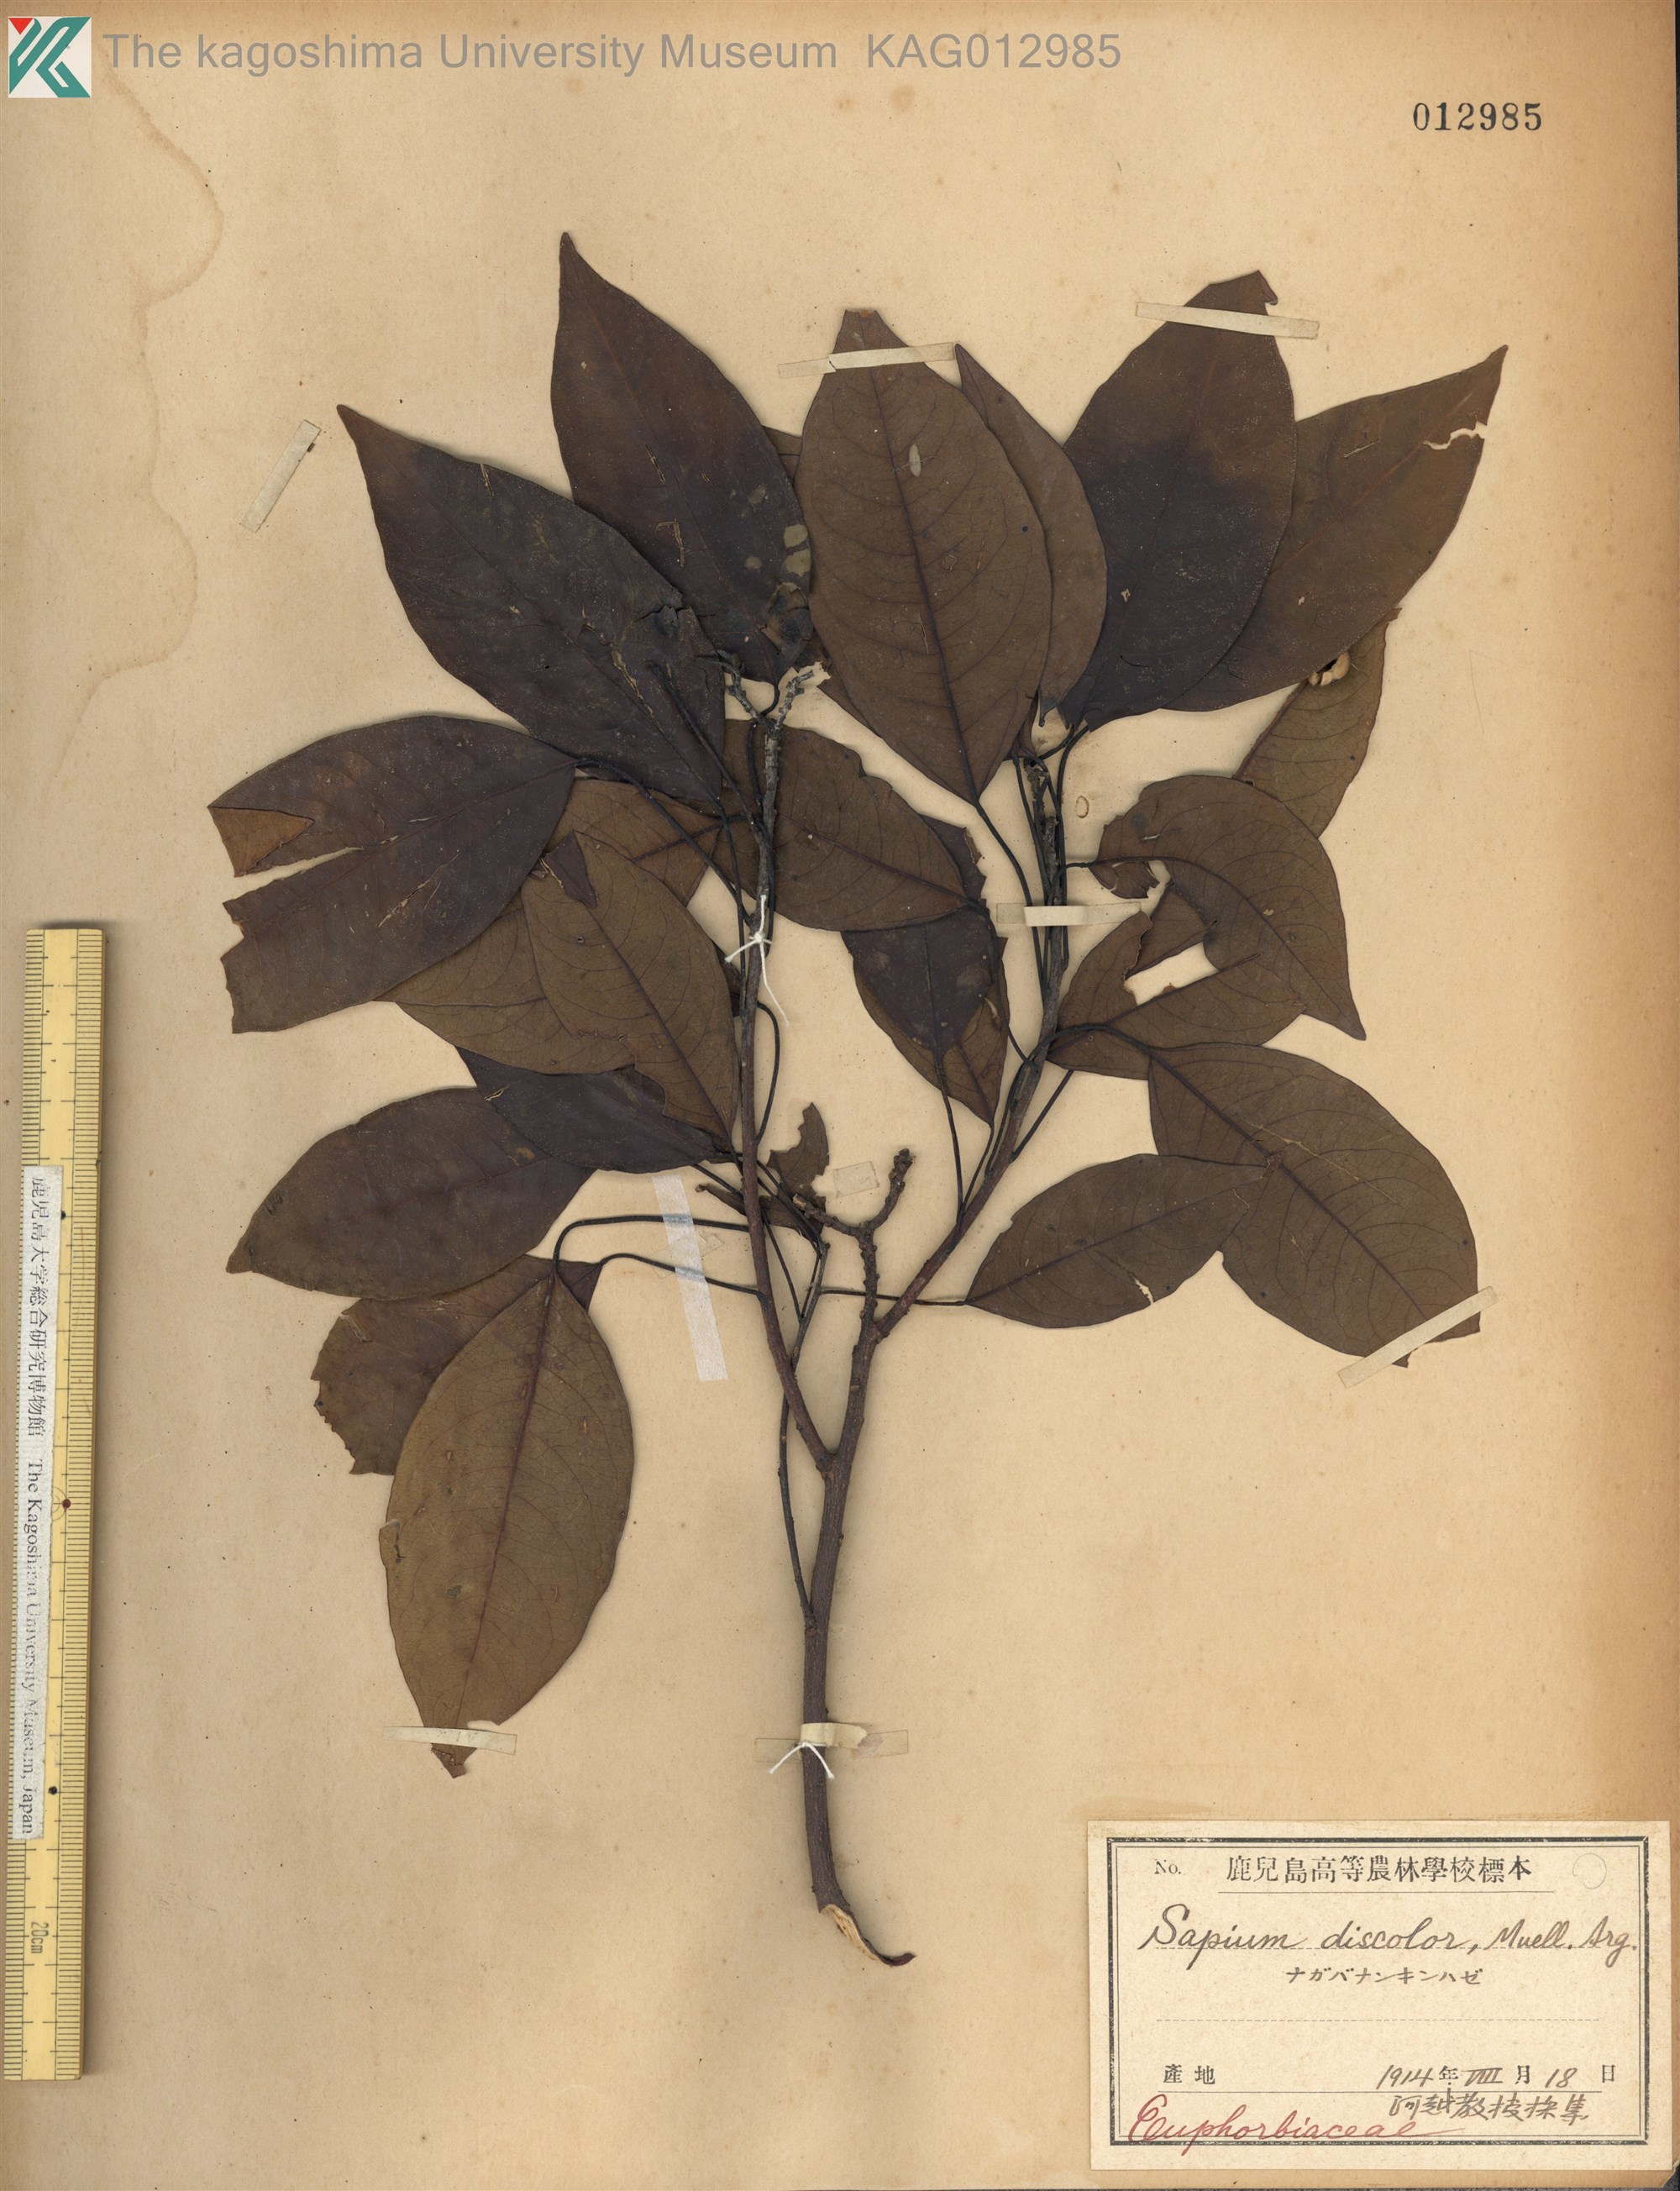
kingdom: Plantae
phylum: Tracheophyta
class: Magnoliopsida
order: Malpighiales
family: Euphorbiaceae
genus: Triadica
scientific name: Triadica cochinchinensis
